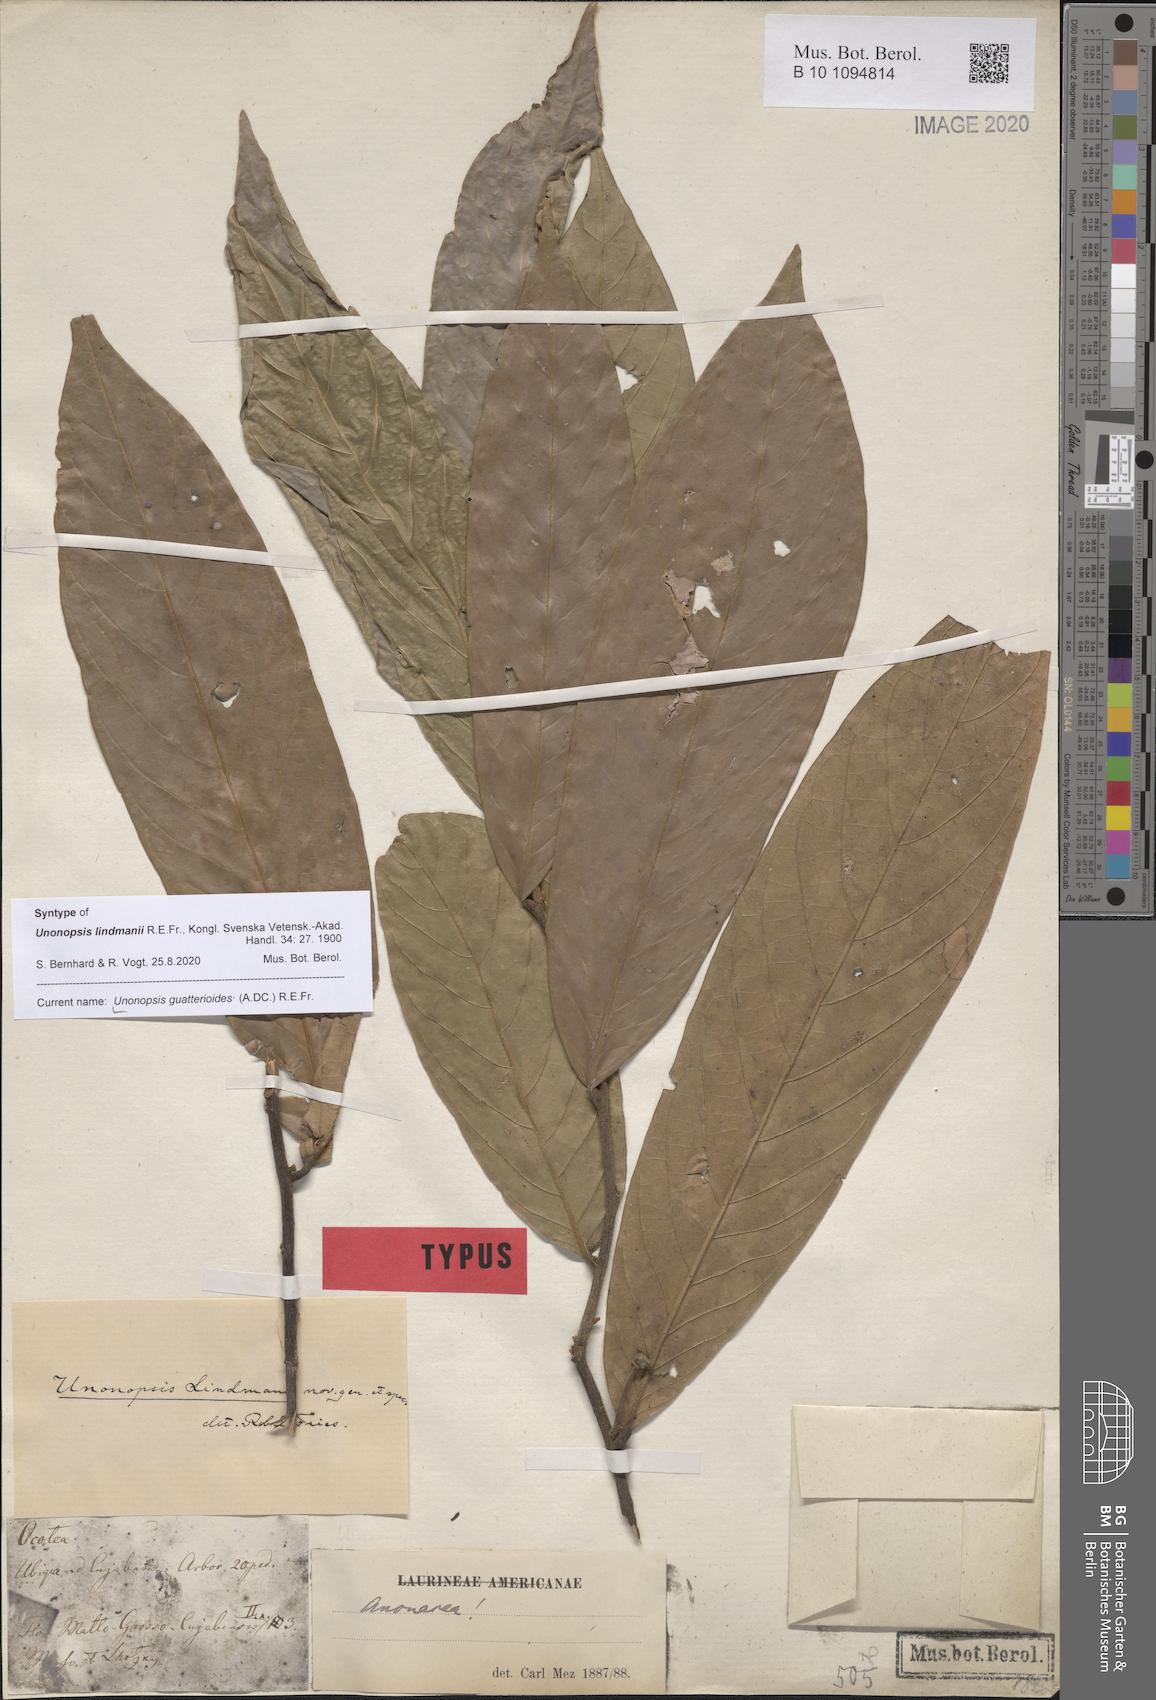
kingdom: Plantae
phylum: Tracheophyta
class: Magnoliopsida
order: Magnoliales
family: Annonaceae
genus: Unonopsis
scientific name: Unonopsis guatterioides
